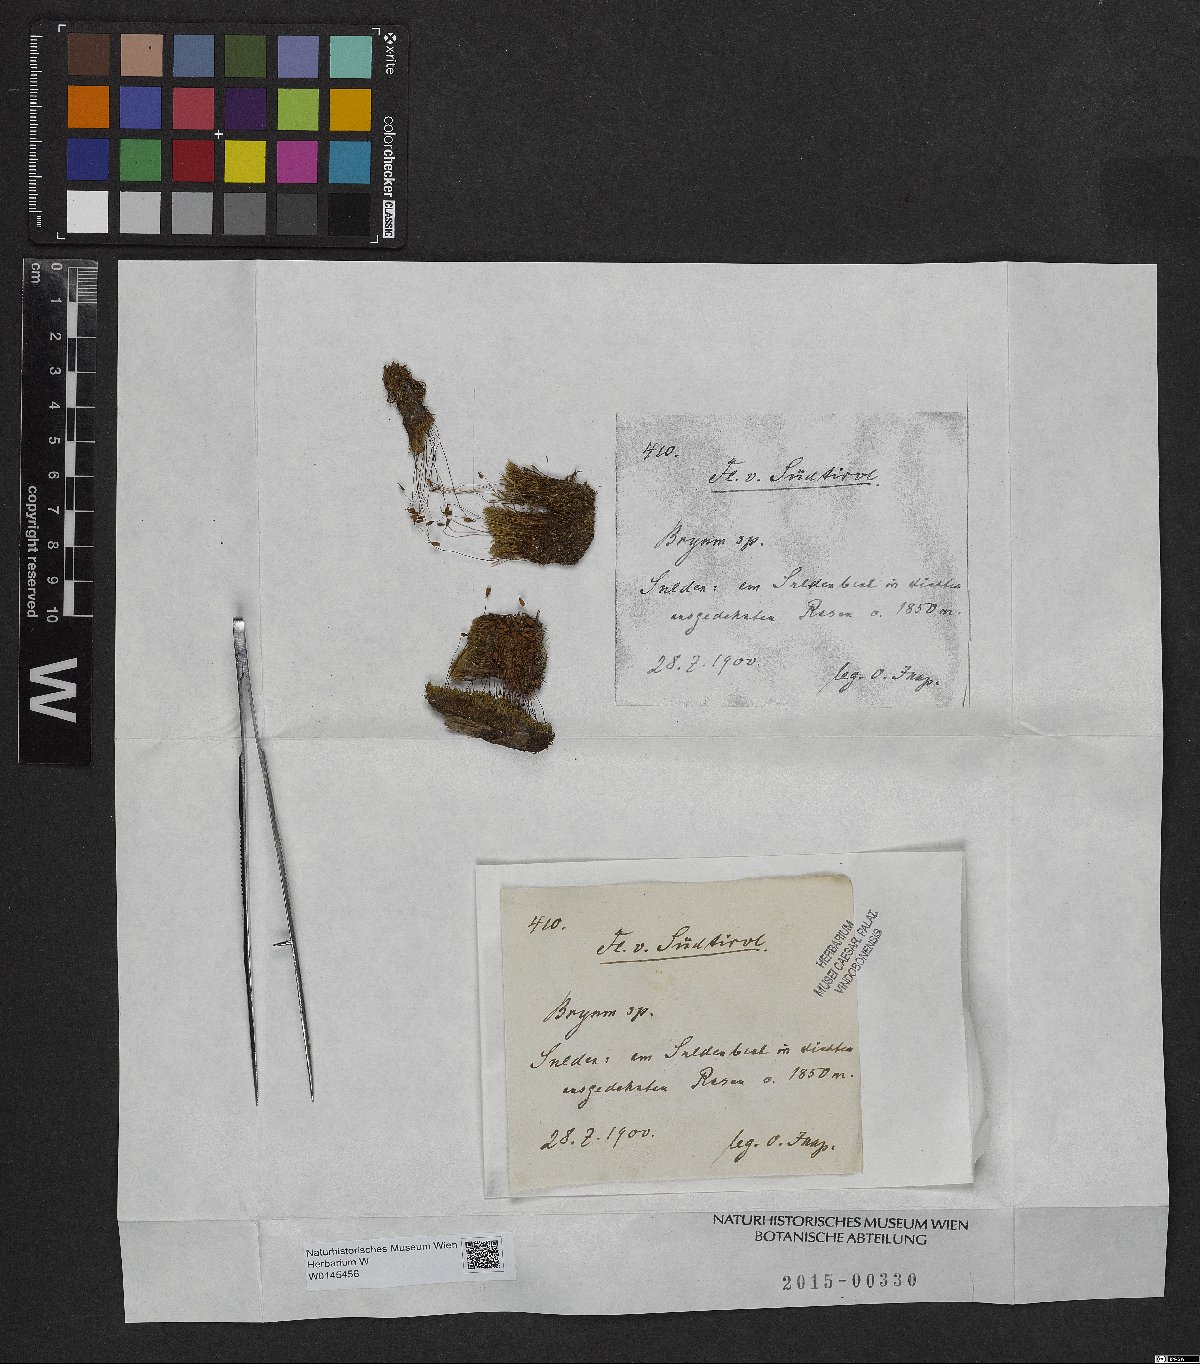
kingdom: Plantae
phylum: Bryophyta
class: Bryopsida
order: Bryales
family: Bryaceae
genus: Bryum
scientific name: Bryum
